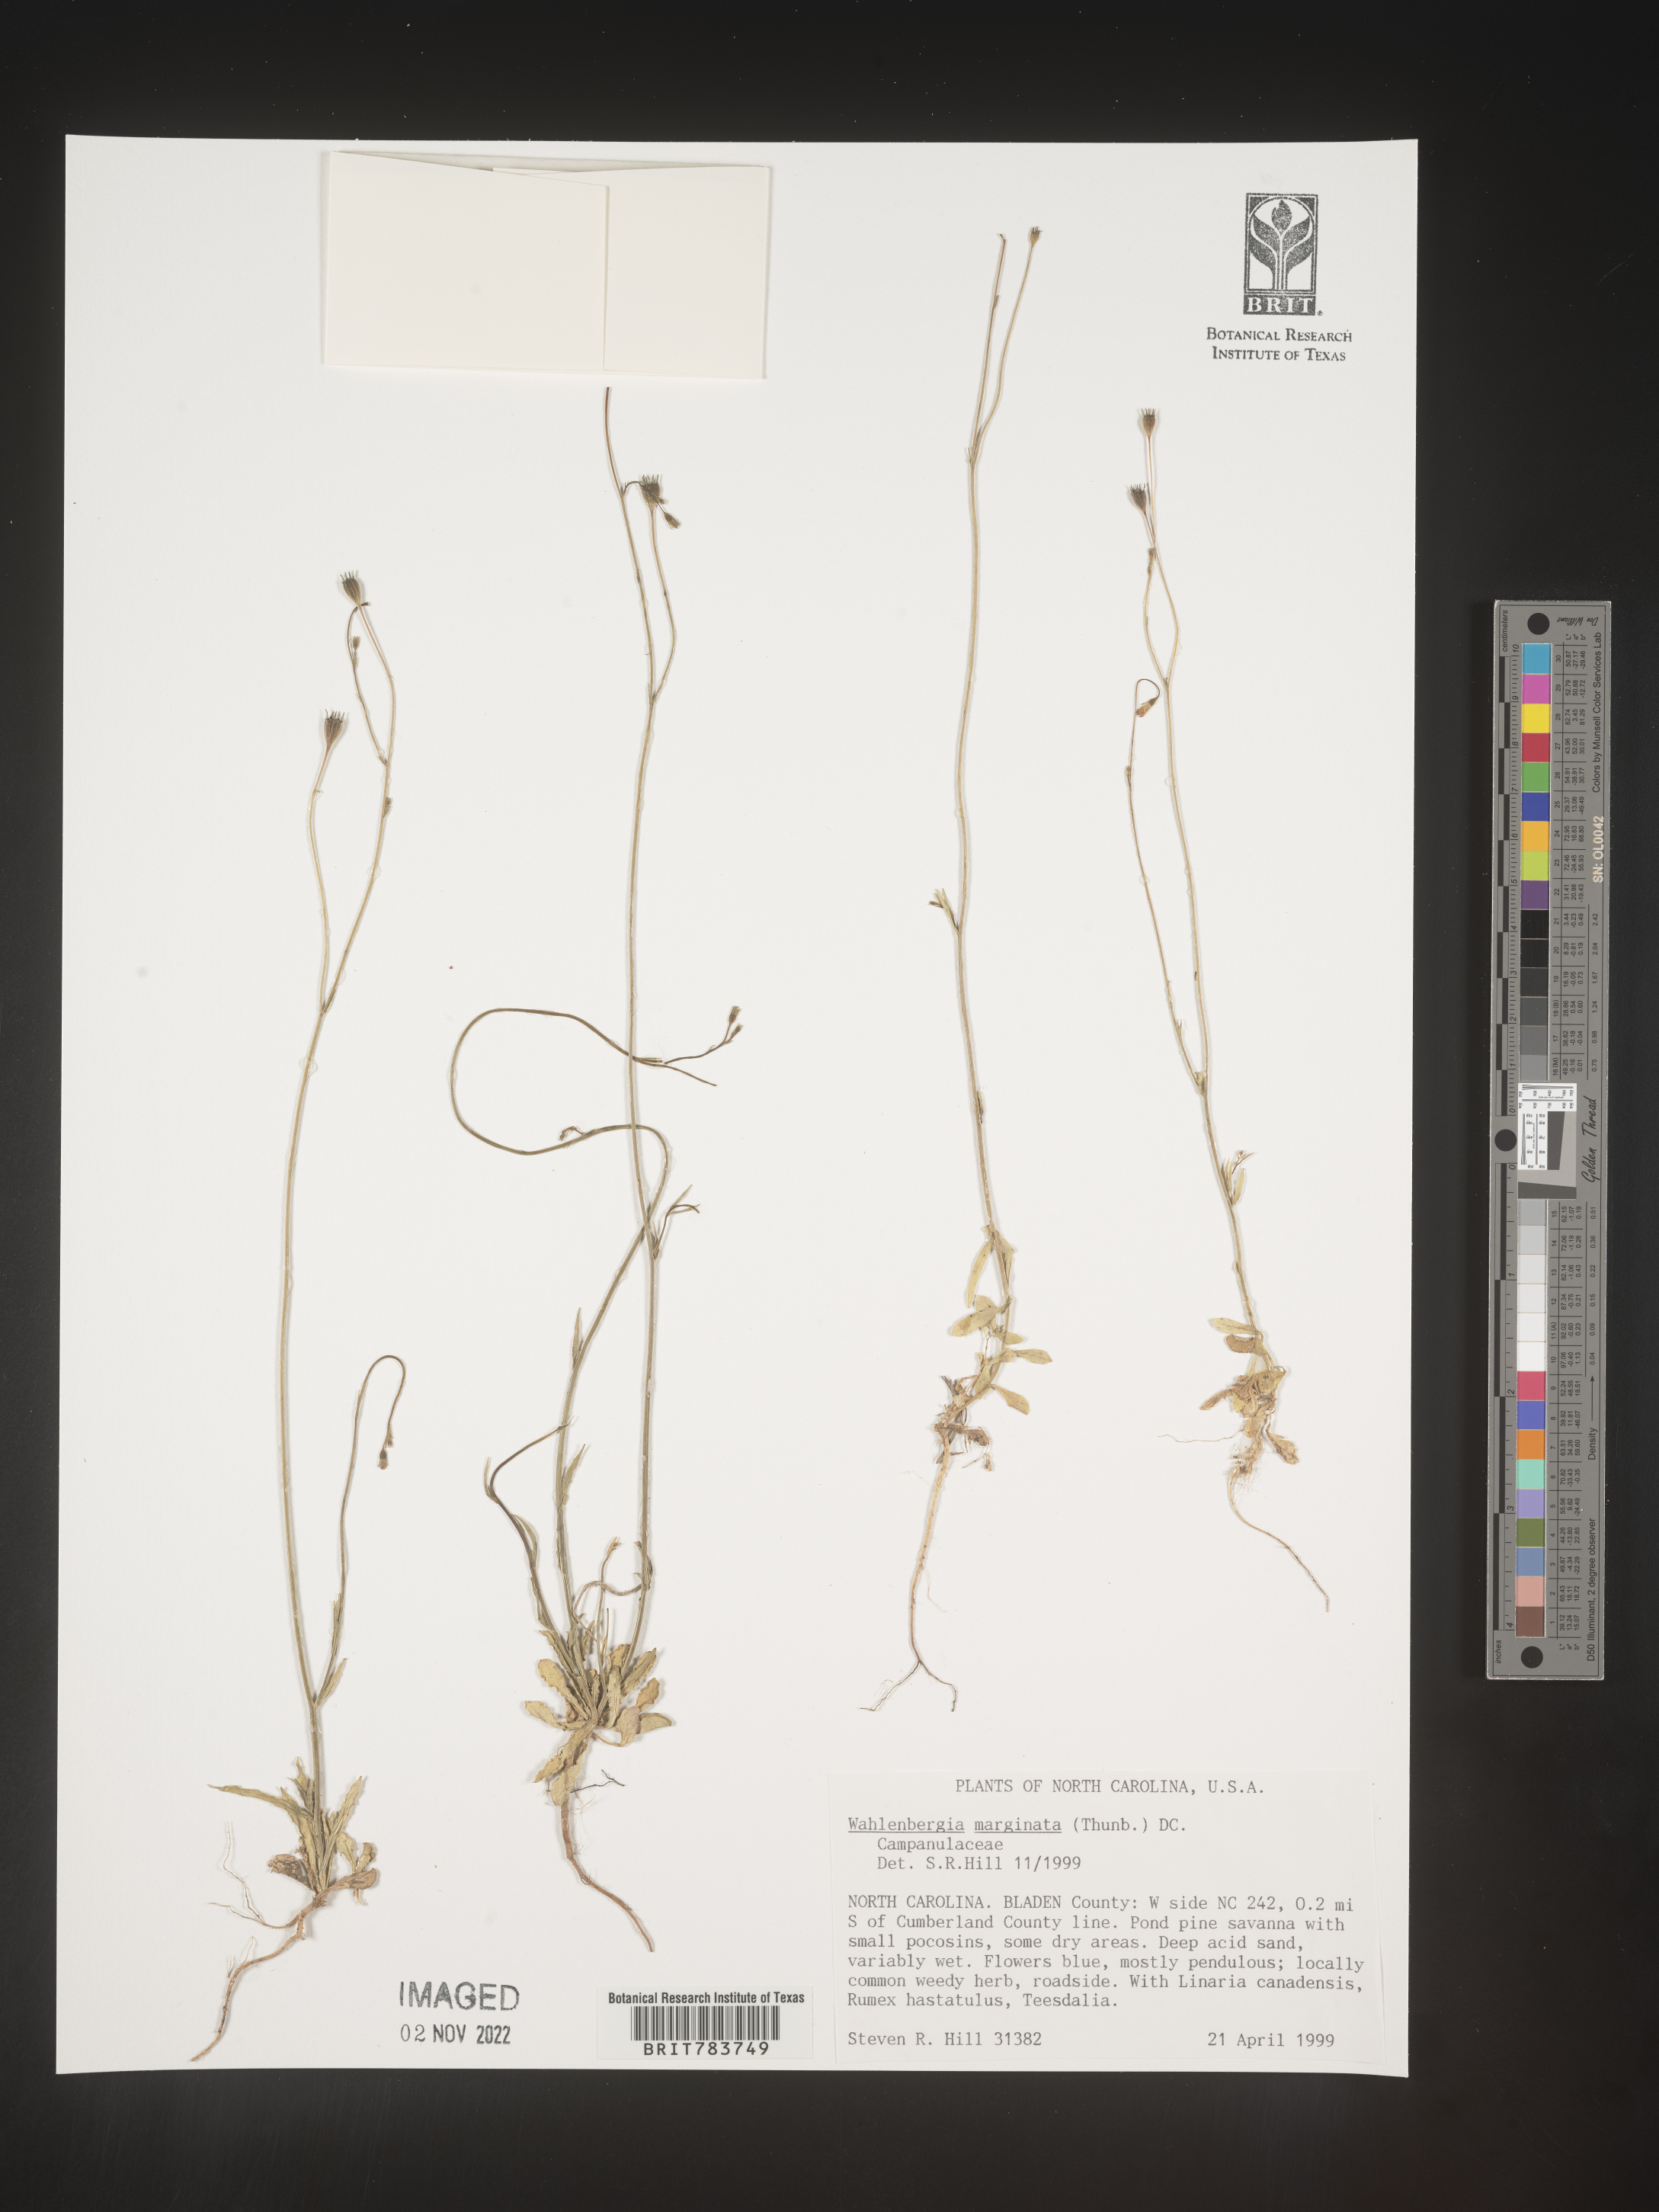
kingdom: Plantae
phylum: Tracheophyta
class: Magnoliopsida
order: Asterales
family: Campanulaceae
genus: Wahlenbergia
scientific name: Wahlenbergia marginata
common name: Southern rockbell
